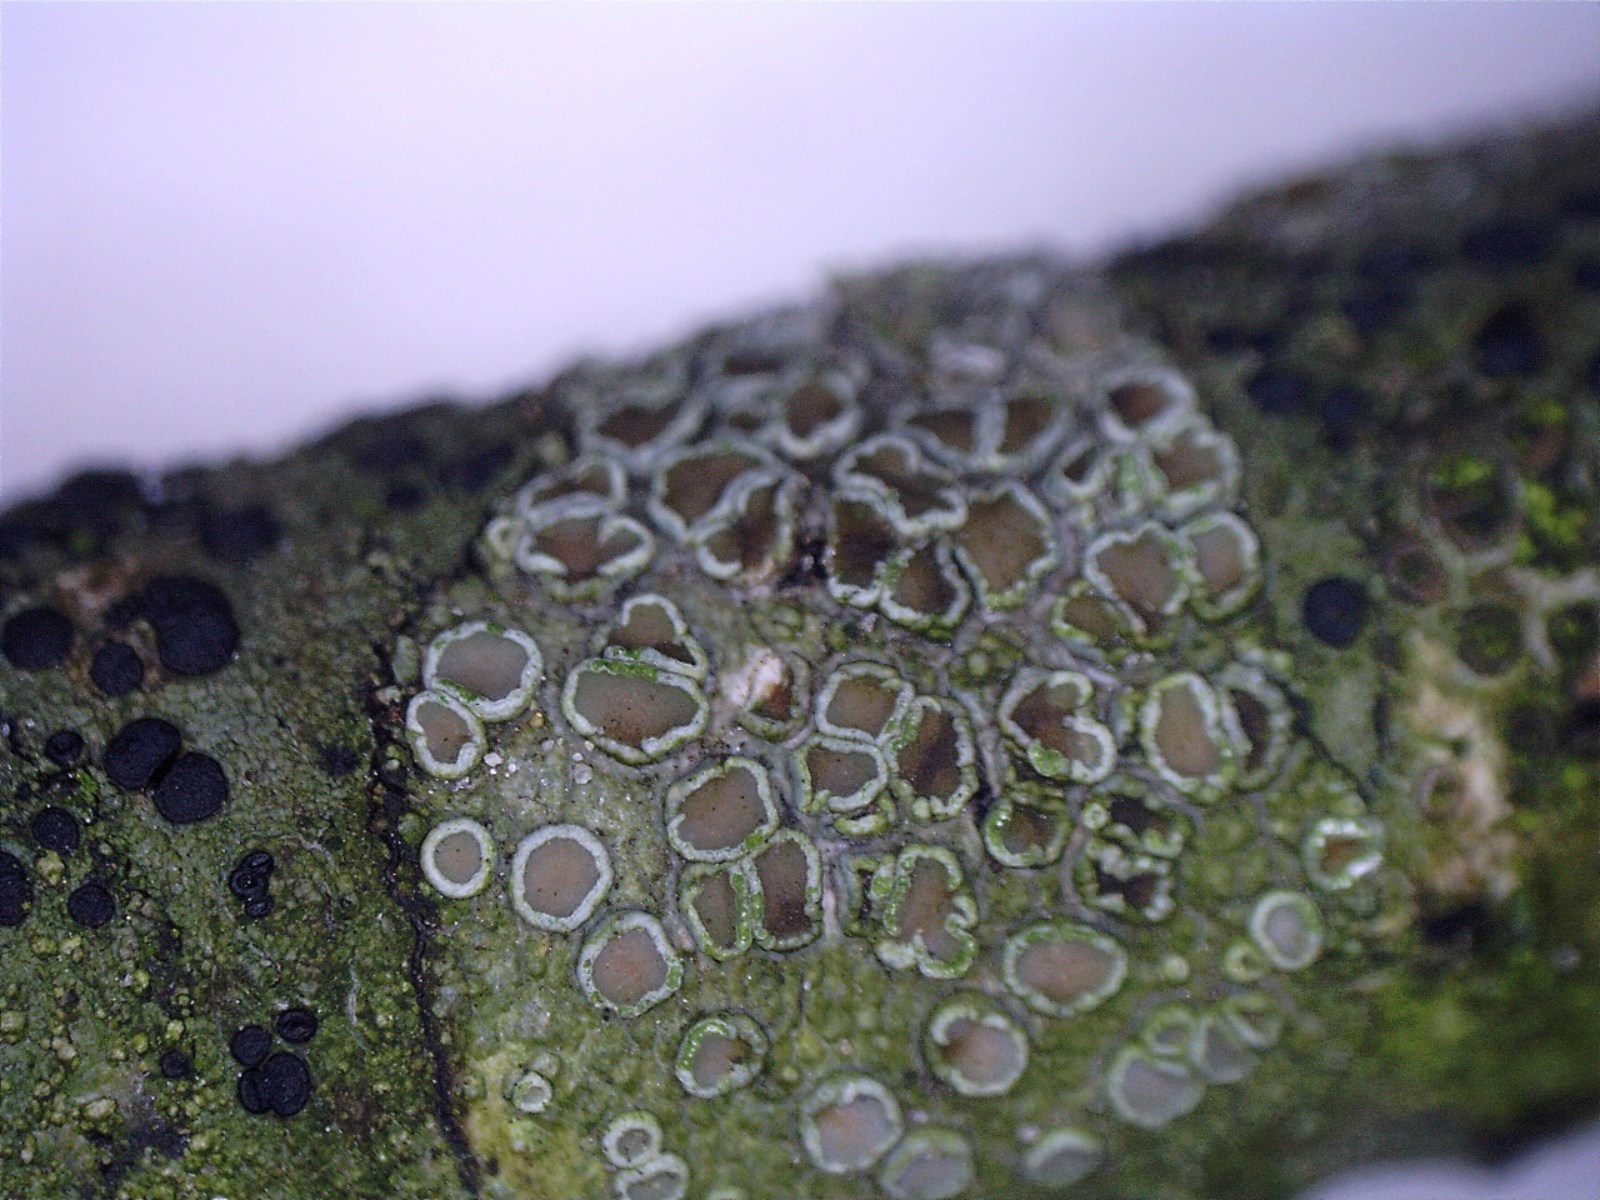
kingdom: Fungi
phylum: Ascomycota
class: Lecanoromycetes
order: Lecanorales
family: Lecanoraceae
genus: Lecanora
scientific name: Lecanora chlarotera
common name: brun kantskivelav
